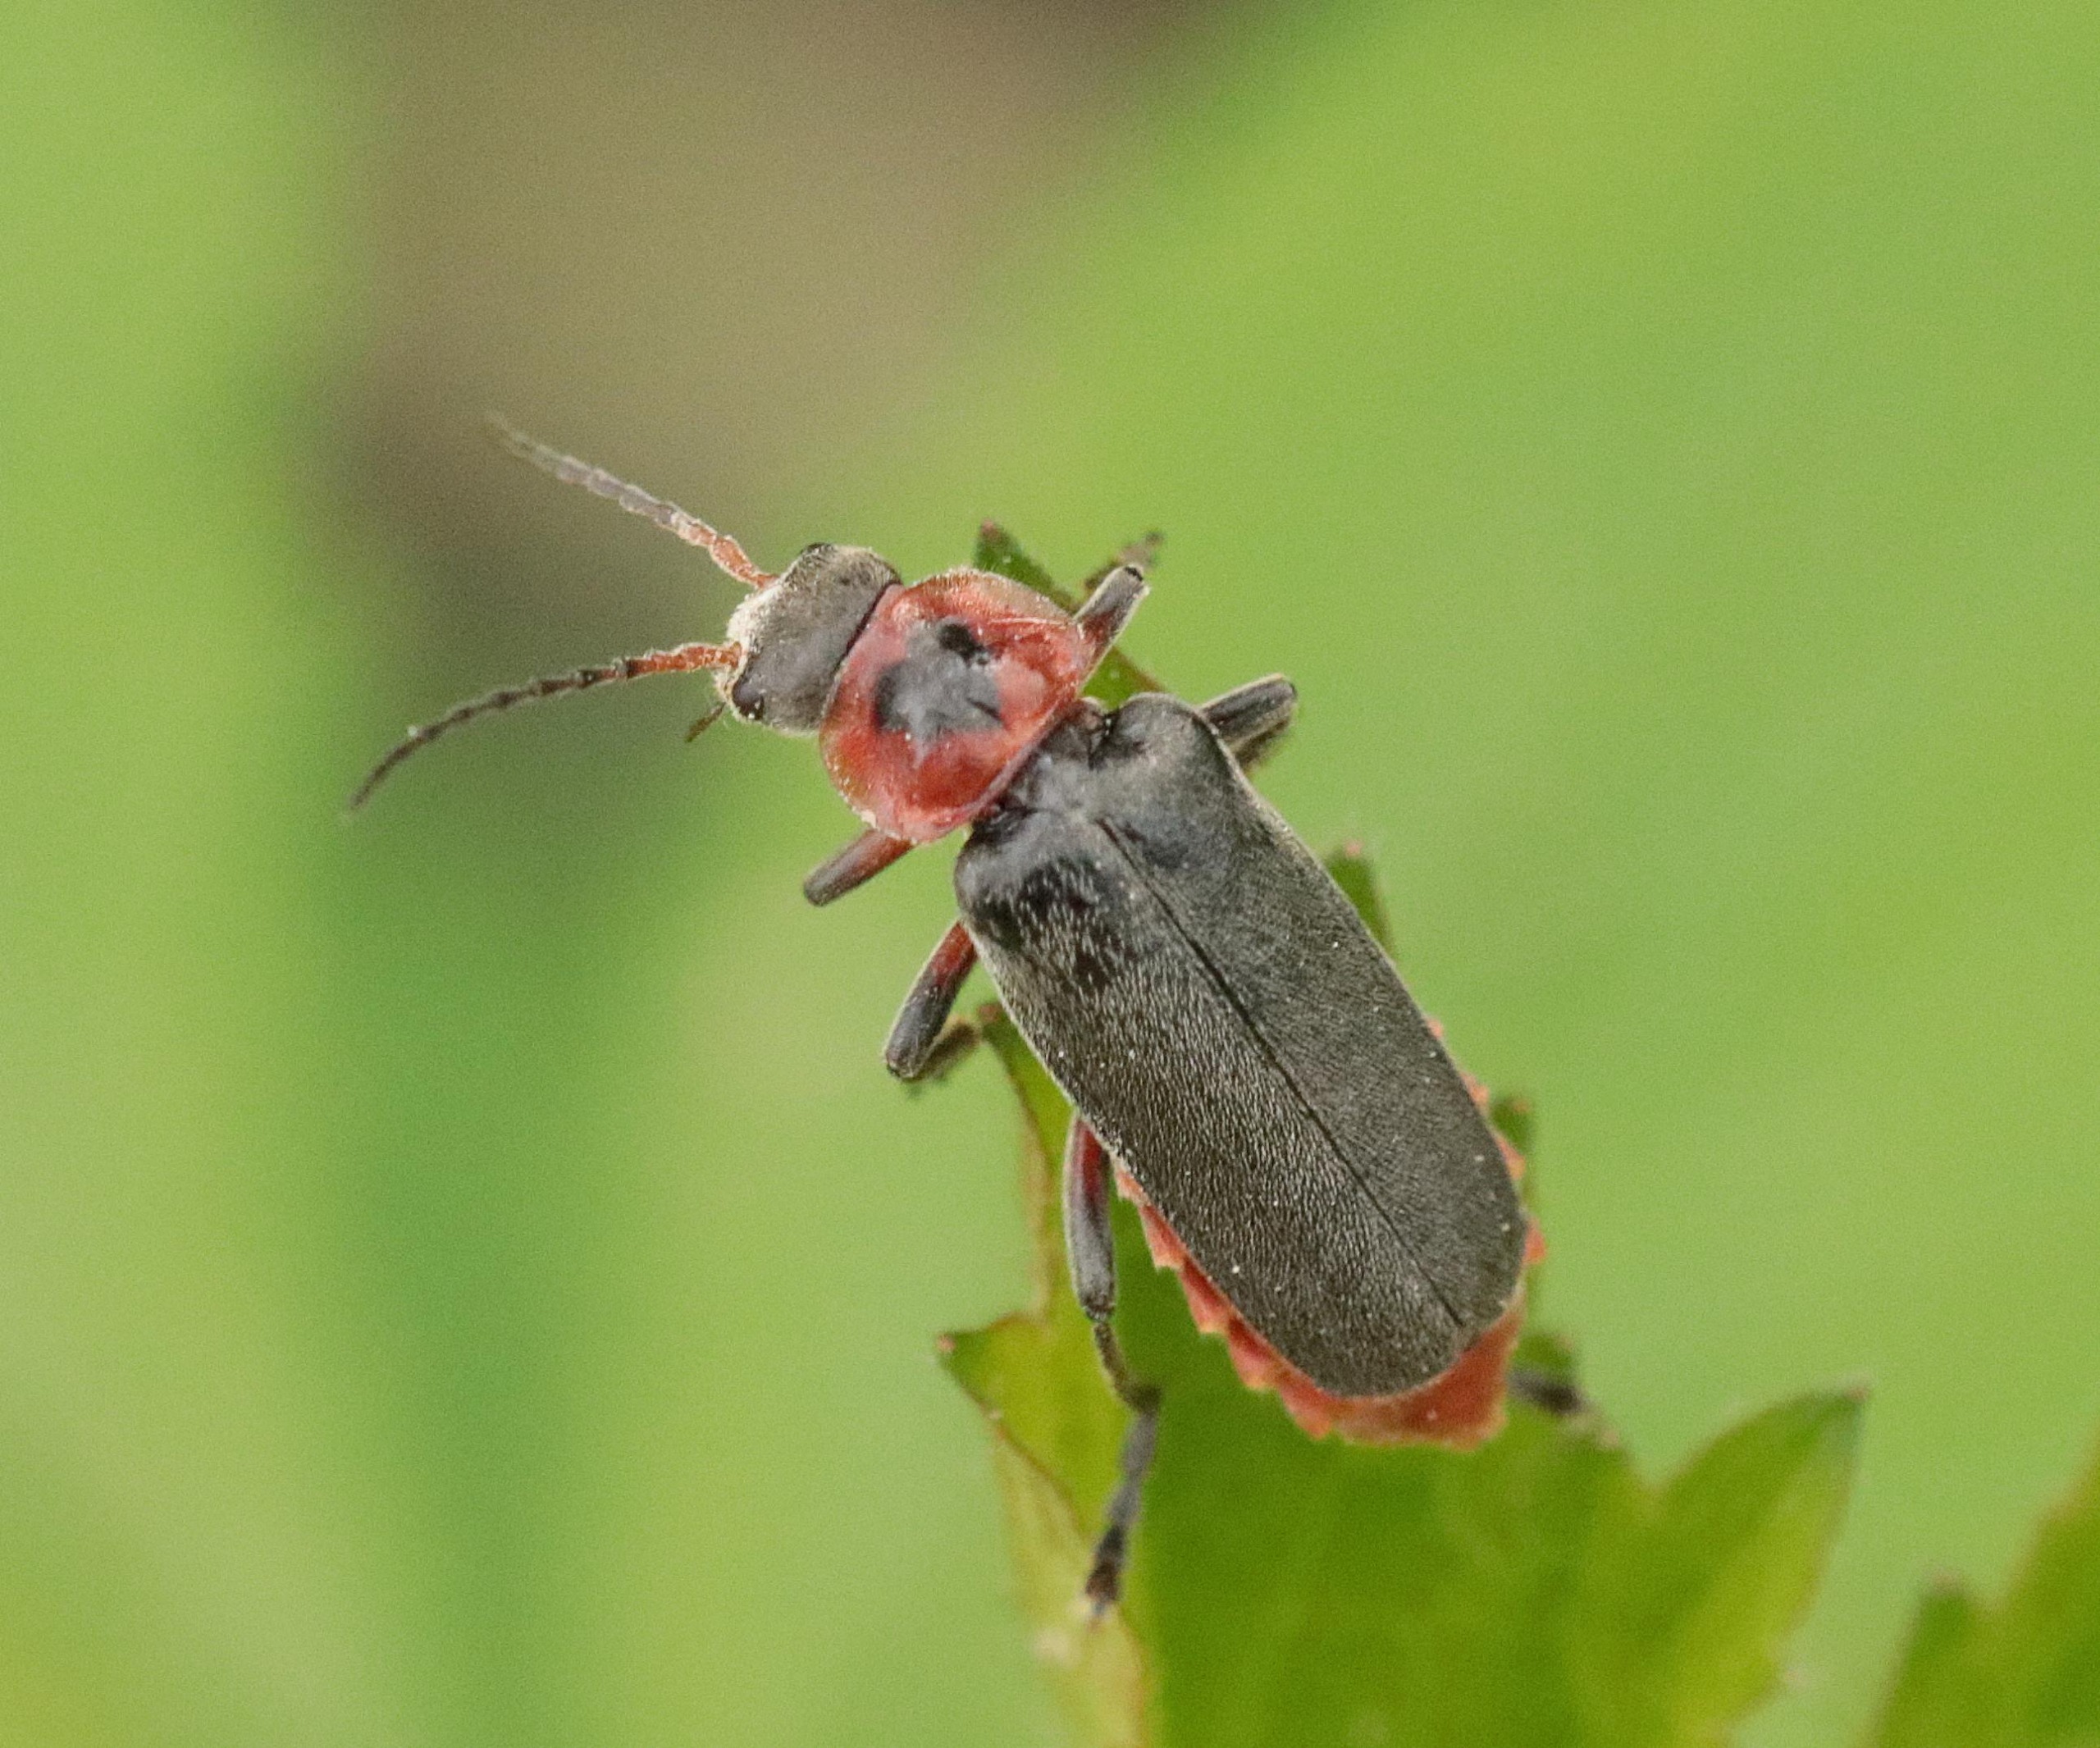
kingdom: Animalia
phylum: Arthropoda
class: Insecta
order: Coleoptera
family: Cantharidae
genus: Cantharis
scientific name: Cantharis rustica
